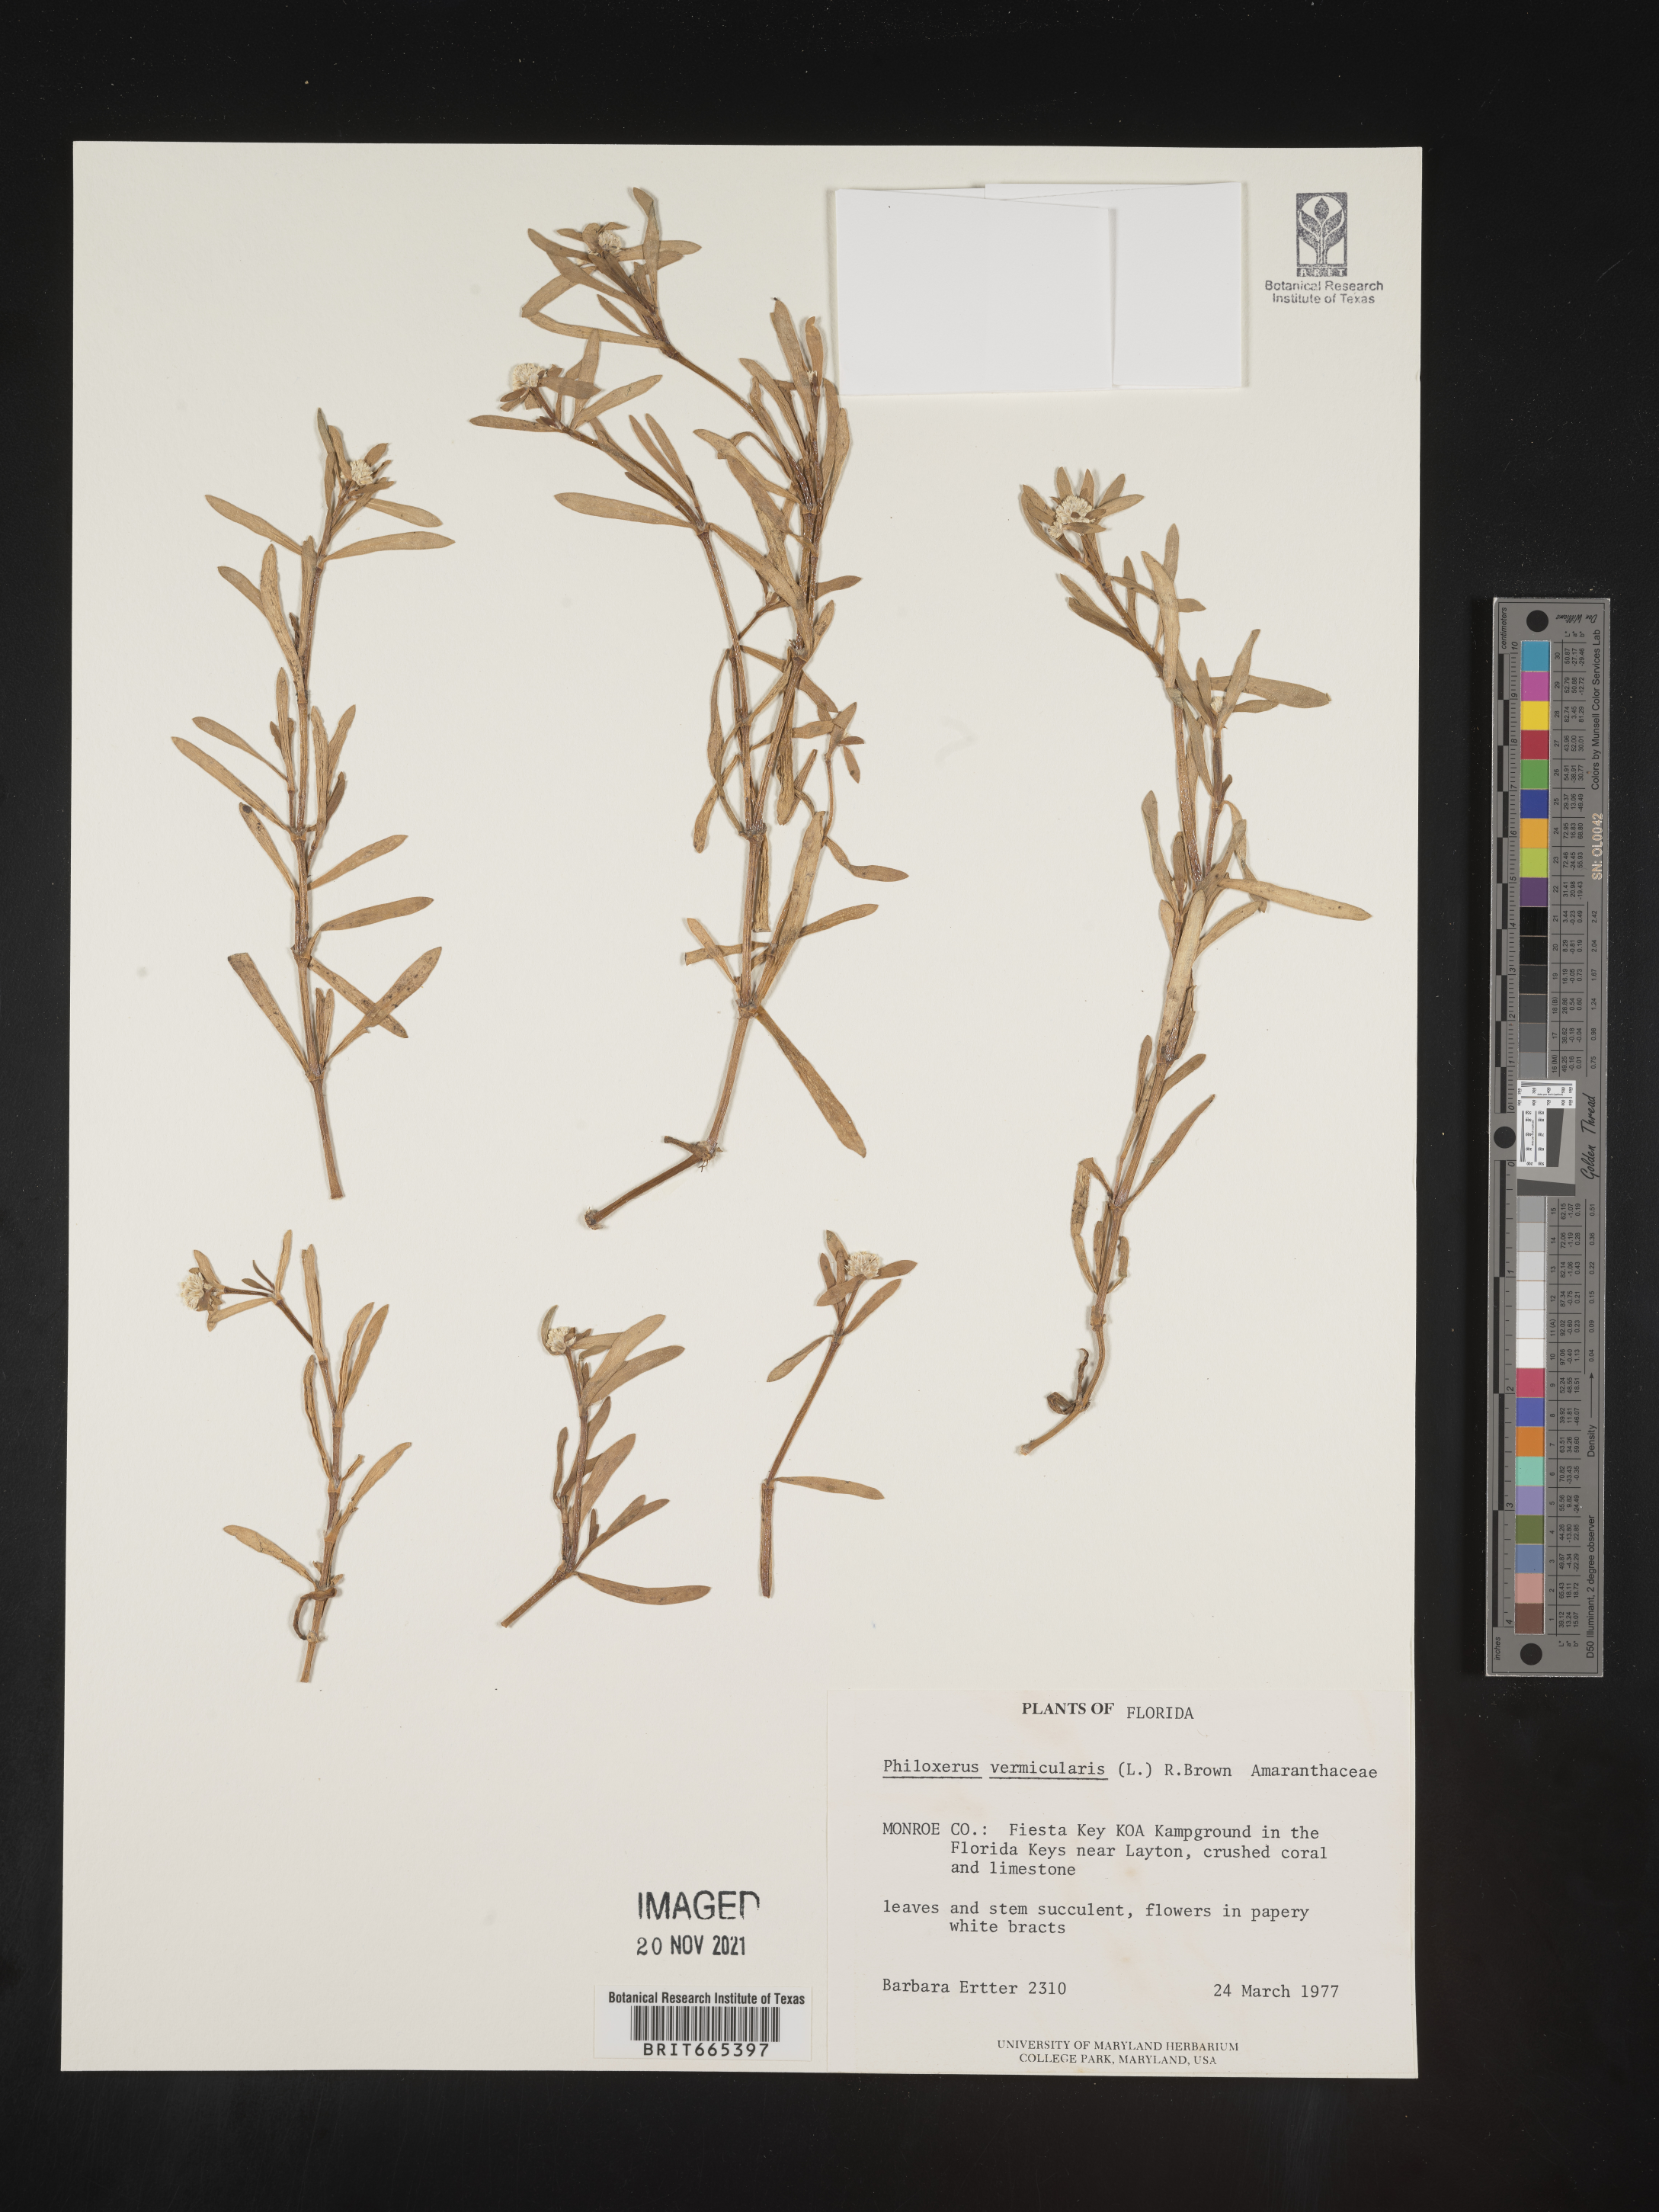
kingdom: Plantae
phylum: Tracheophyta
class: Magnoliopsida
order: Caryophyllales
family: Amaranthaceae
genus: Gomphrena
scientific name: Gomphrena
